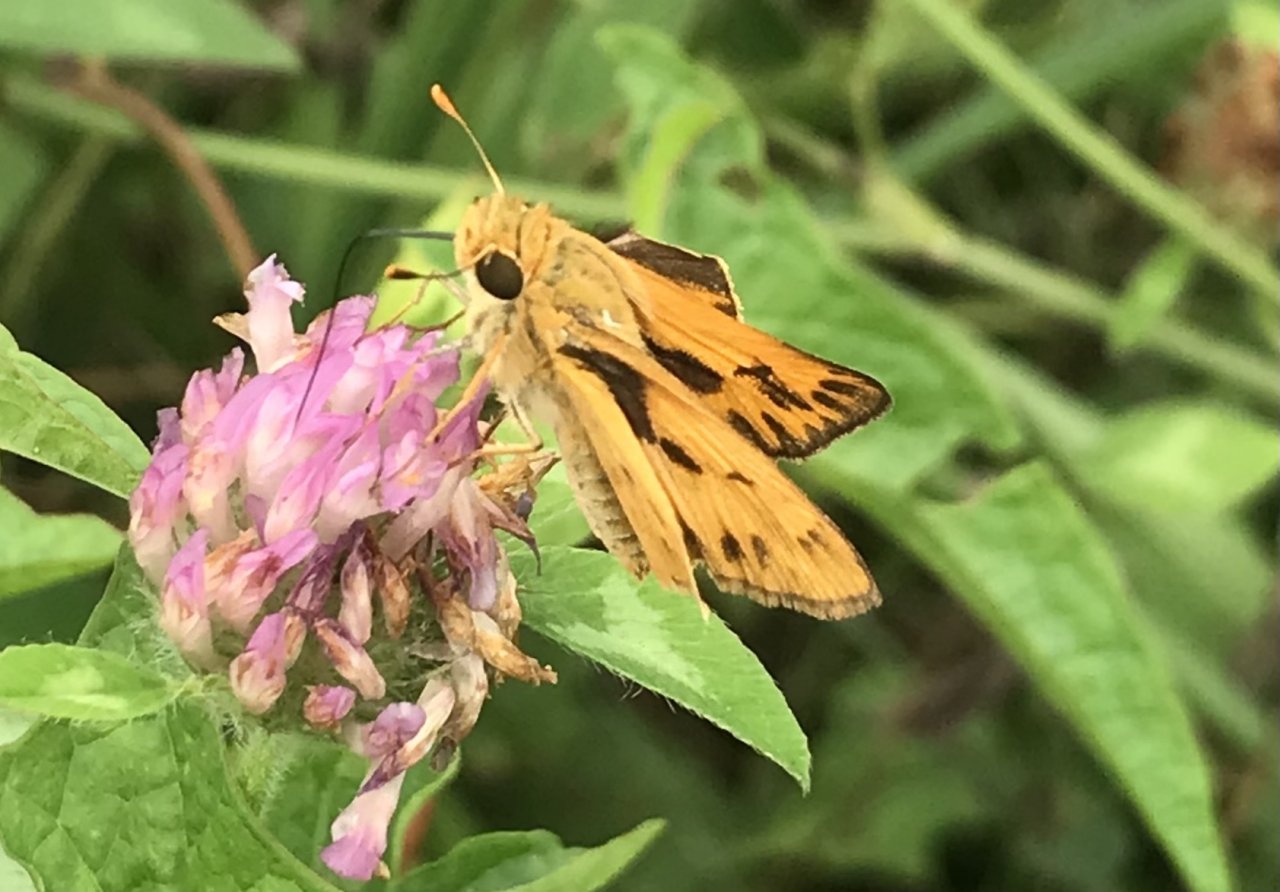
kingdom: Animalia
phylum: Arthropoda
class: Insecta
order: Lepidoptera
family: Hesperiidae
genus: Hylephila
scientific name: Hylephila phyleus
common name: Fiery Skipper
